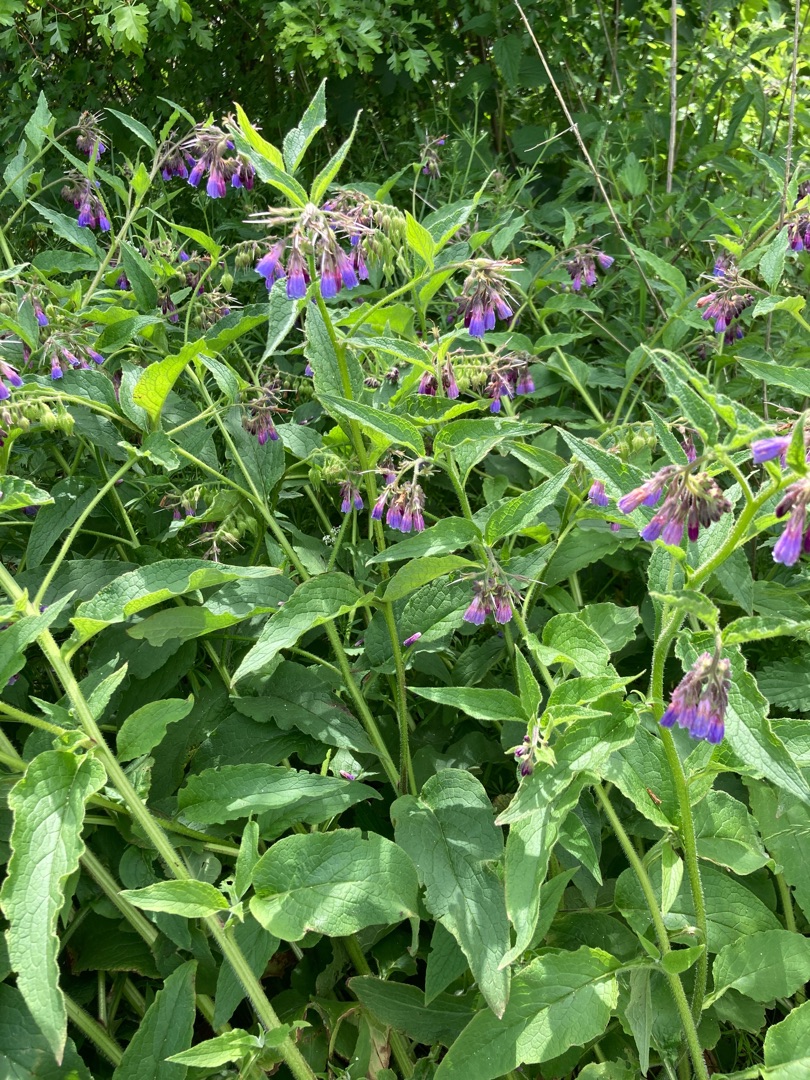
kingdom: Plantae
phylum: Tracheophyta
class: Magnoliopsida
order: Boraginales
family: Boraginaceae
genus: Symphytum
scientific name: Symphytum uplandicum
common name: Foder-kulsukker
